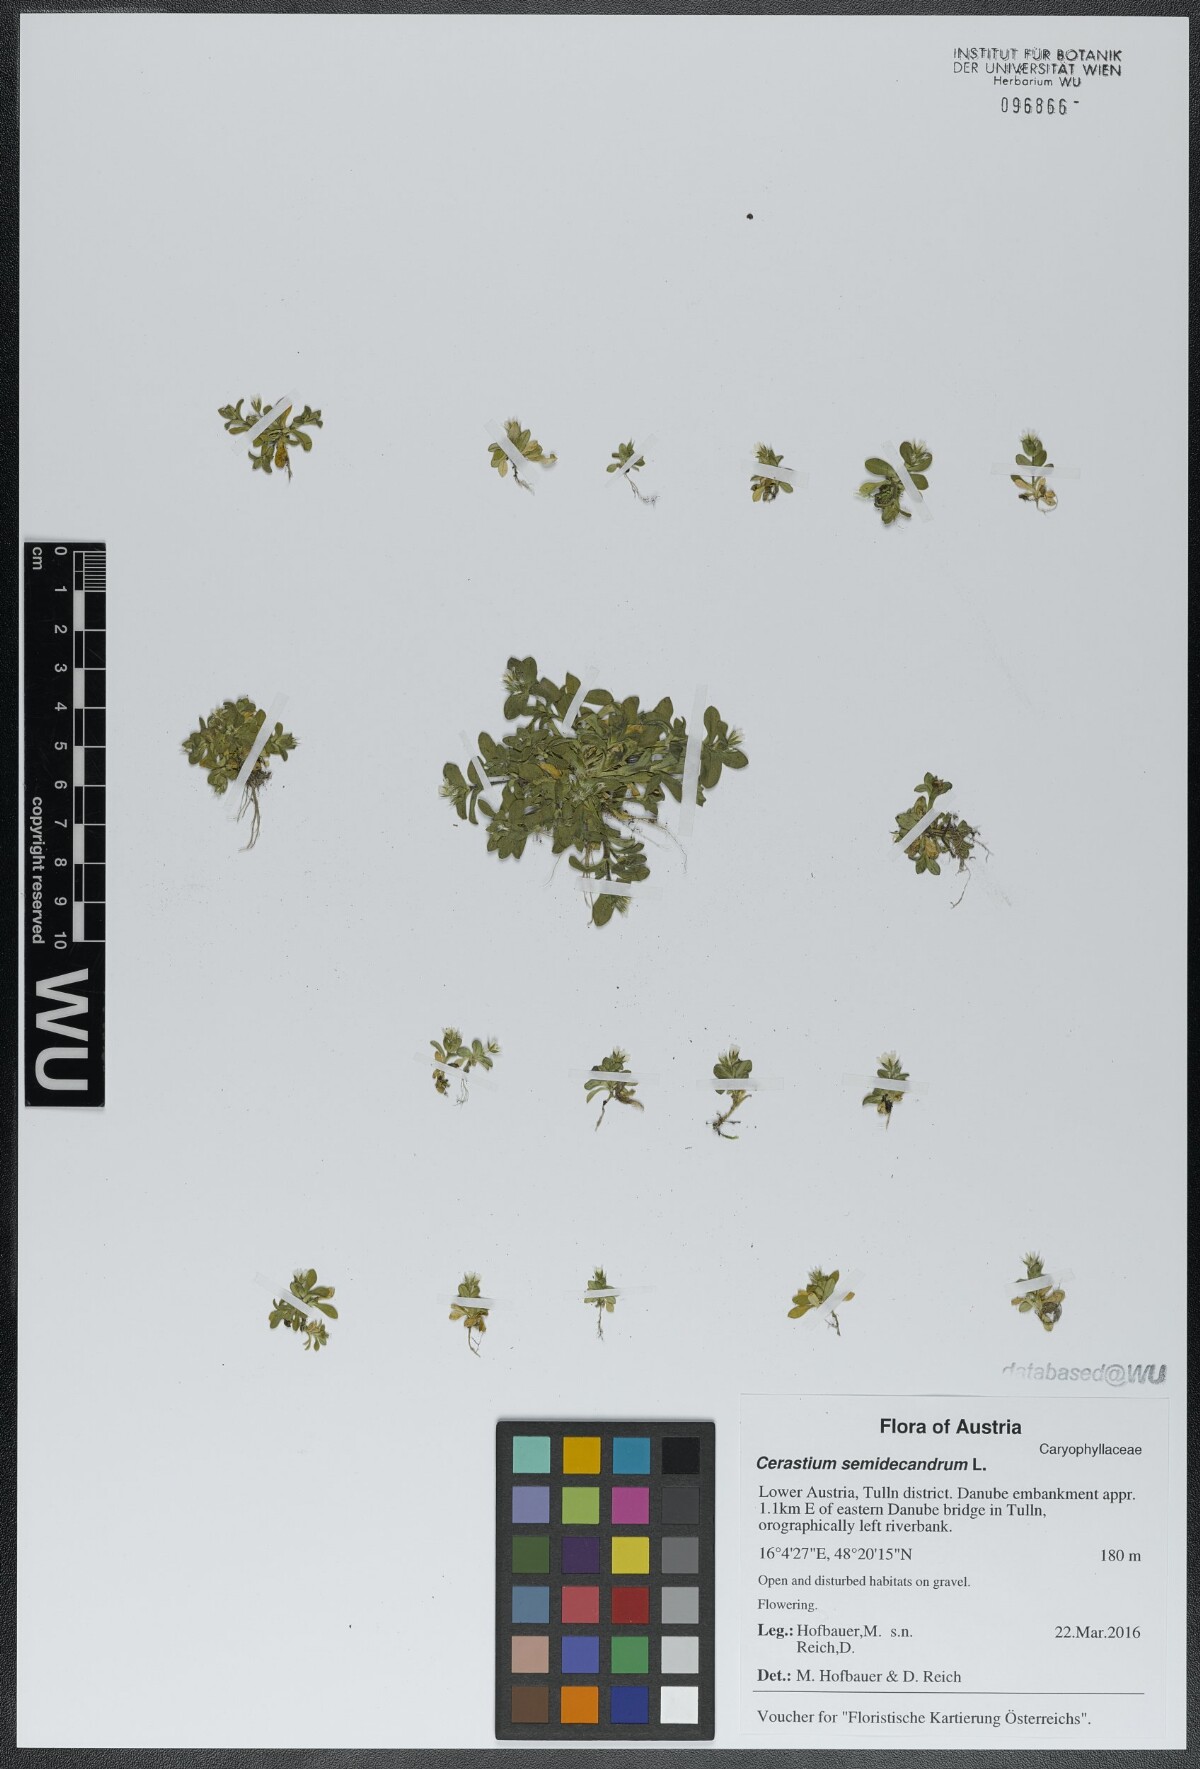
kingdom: Plantae
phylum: Tracheophyta
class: Magnoliopsida
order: Caryophyllales
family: Caryophyllaceae
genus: Cerastium
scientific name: Cerastium semidecandrum
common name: Little mouse-ear
